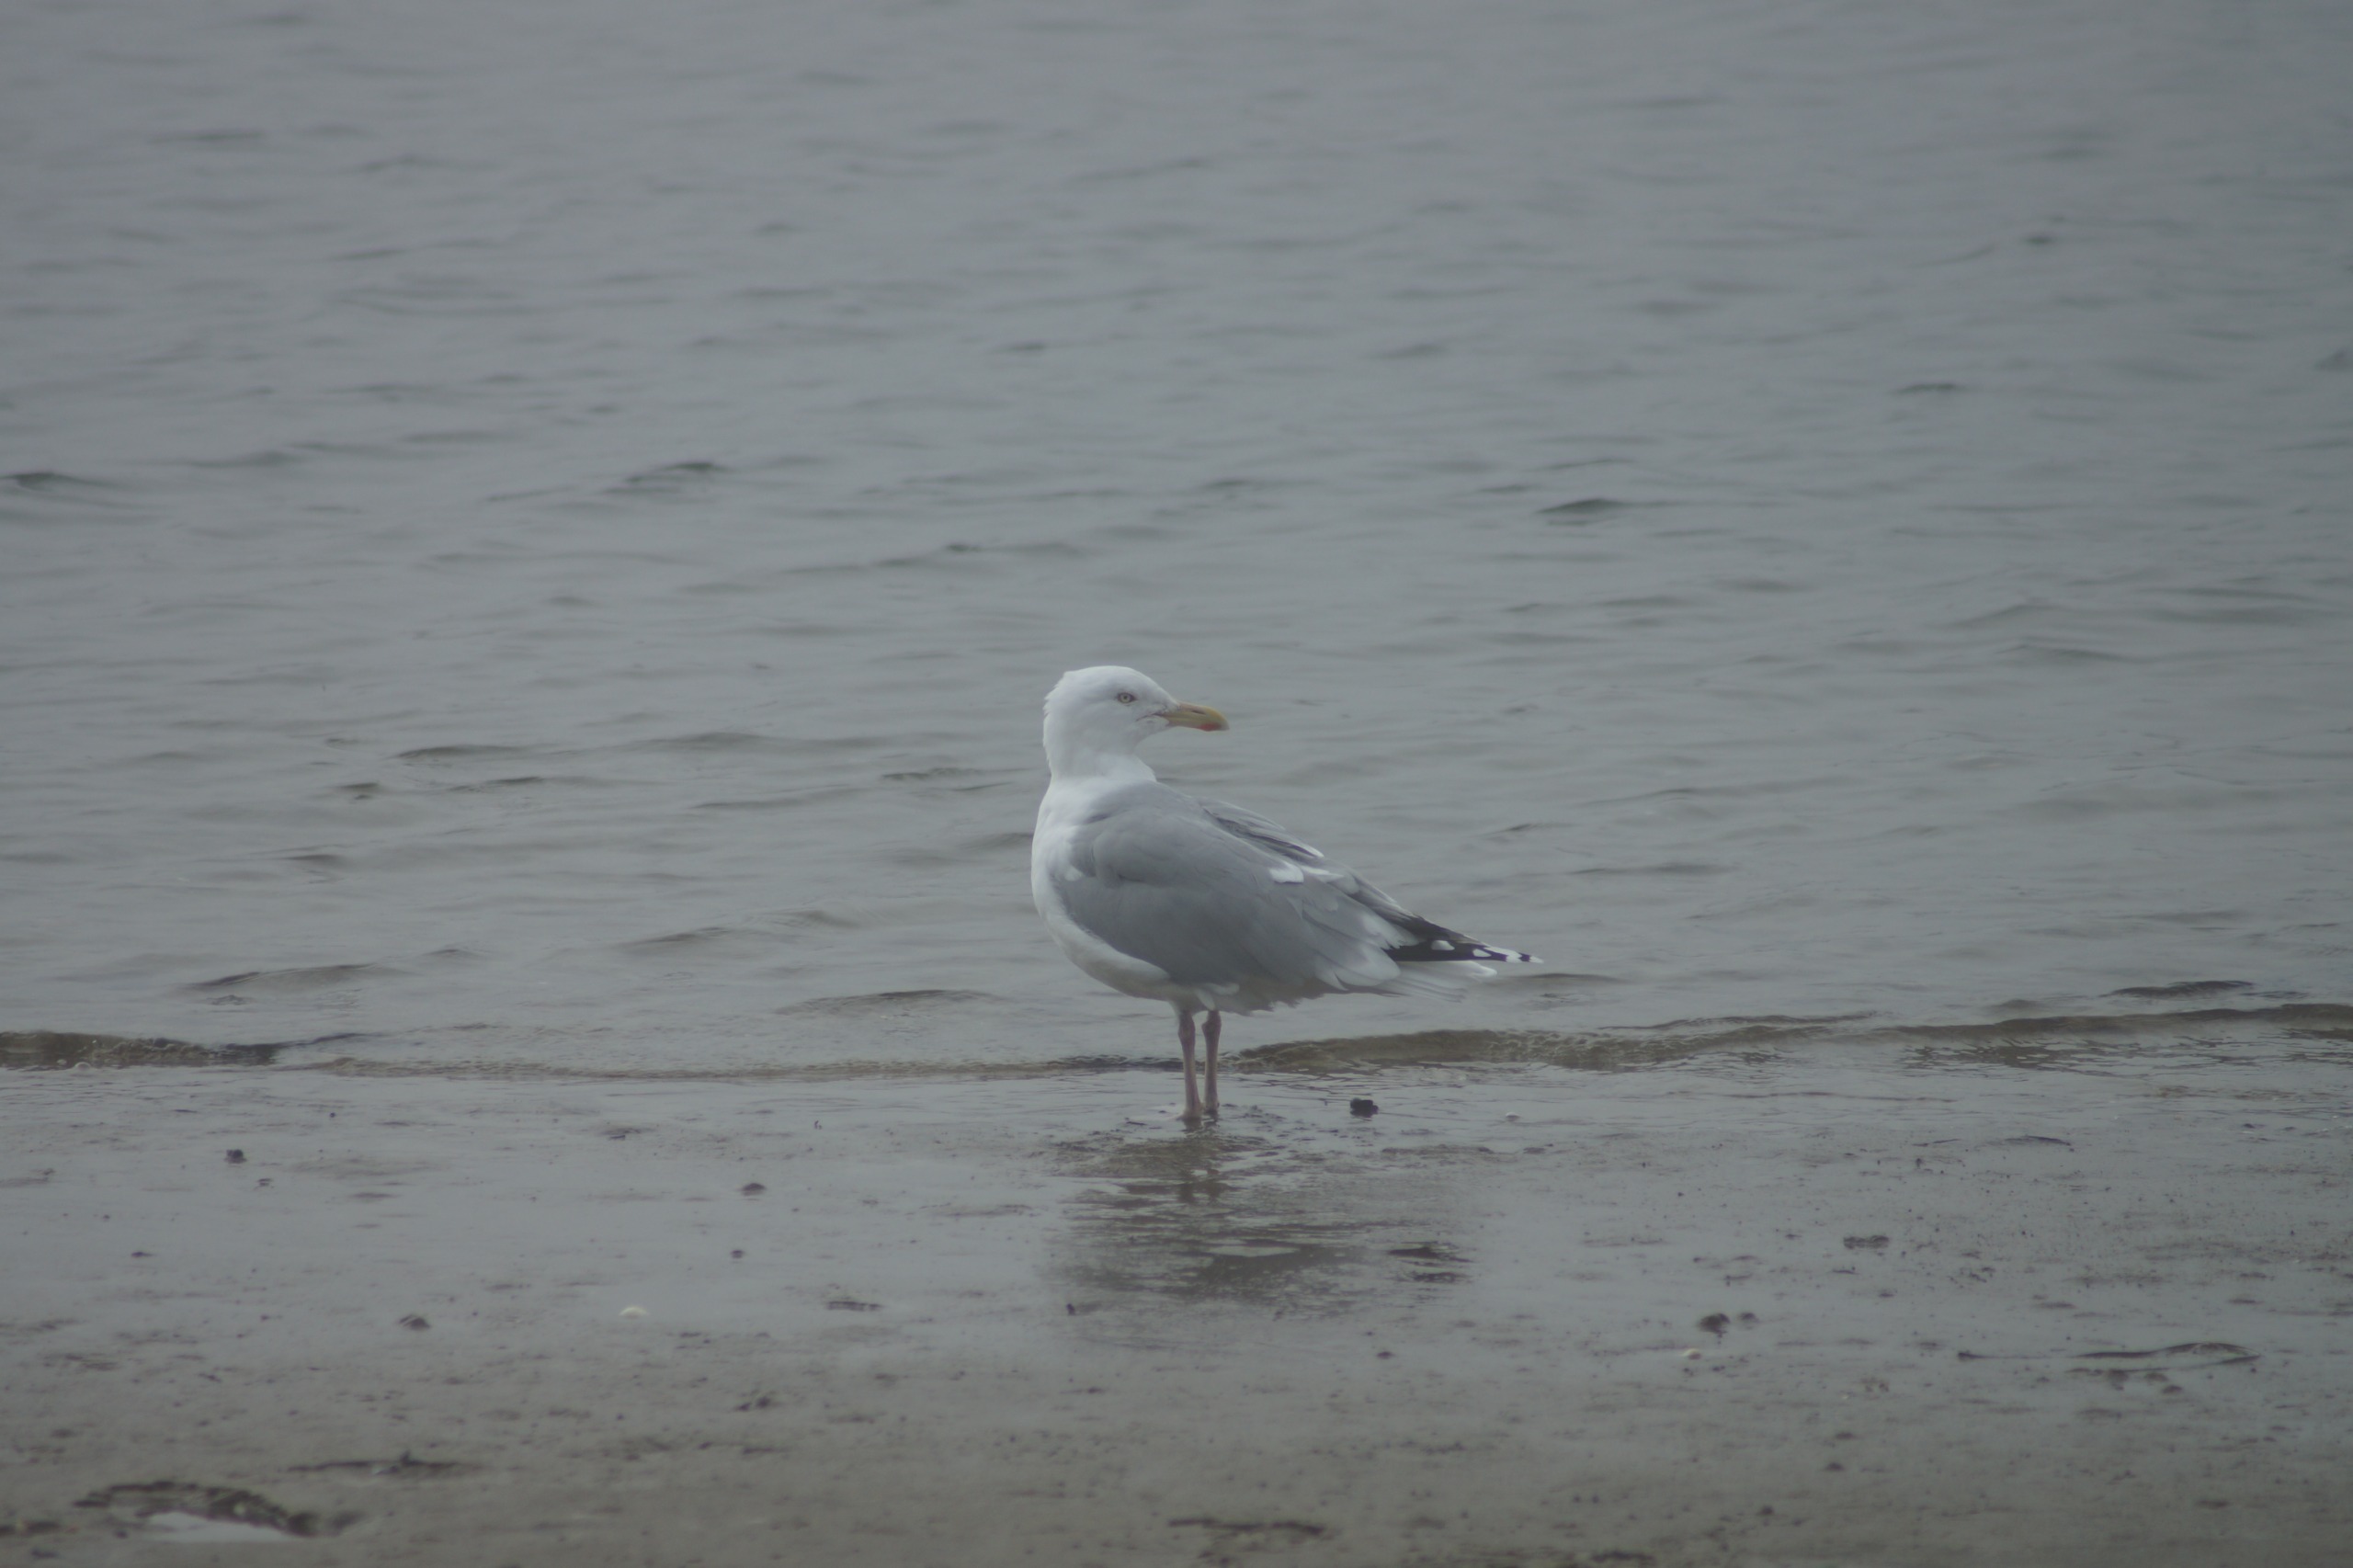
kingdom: Animalia
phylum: Chordata
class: Aves
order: Charadriiformes
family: Laridae
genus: Larus
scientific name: Larus argentatus
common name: Sølvmåge
